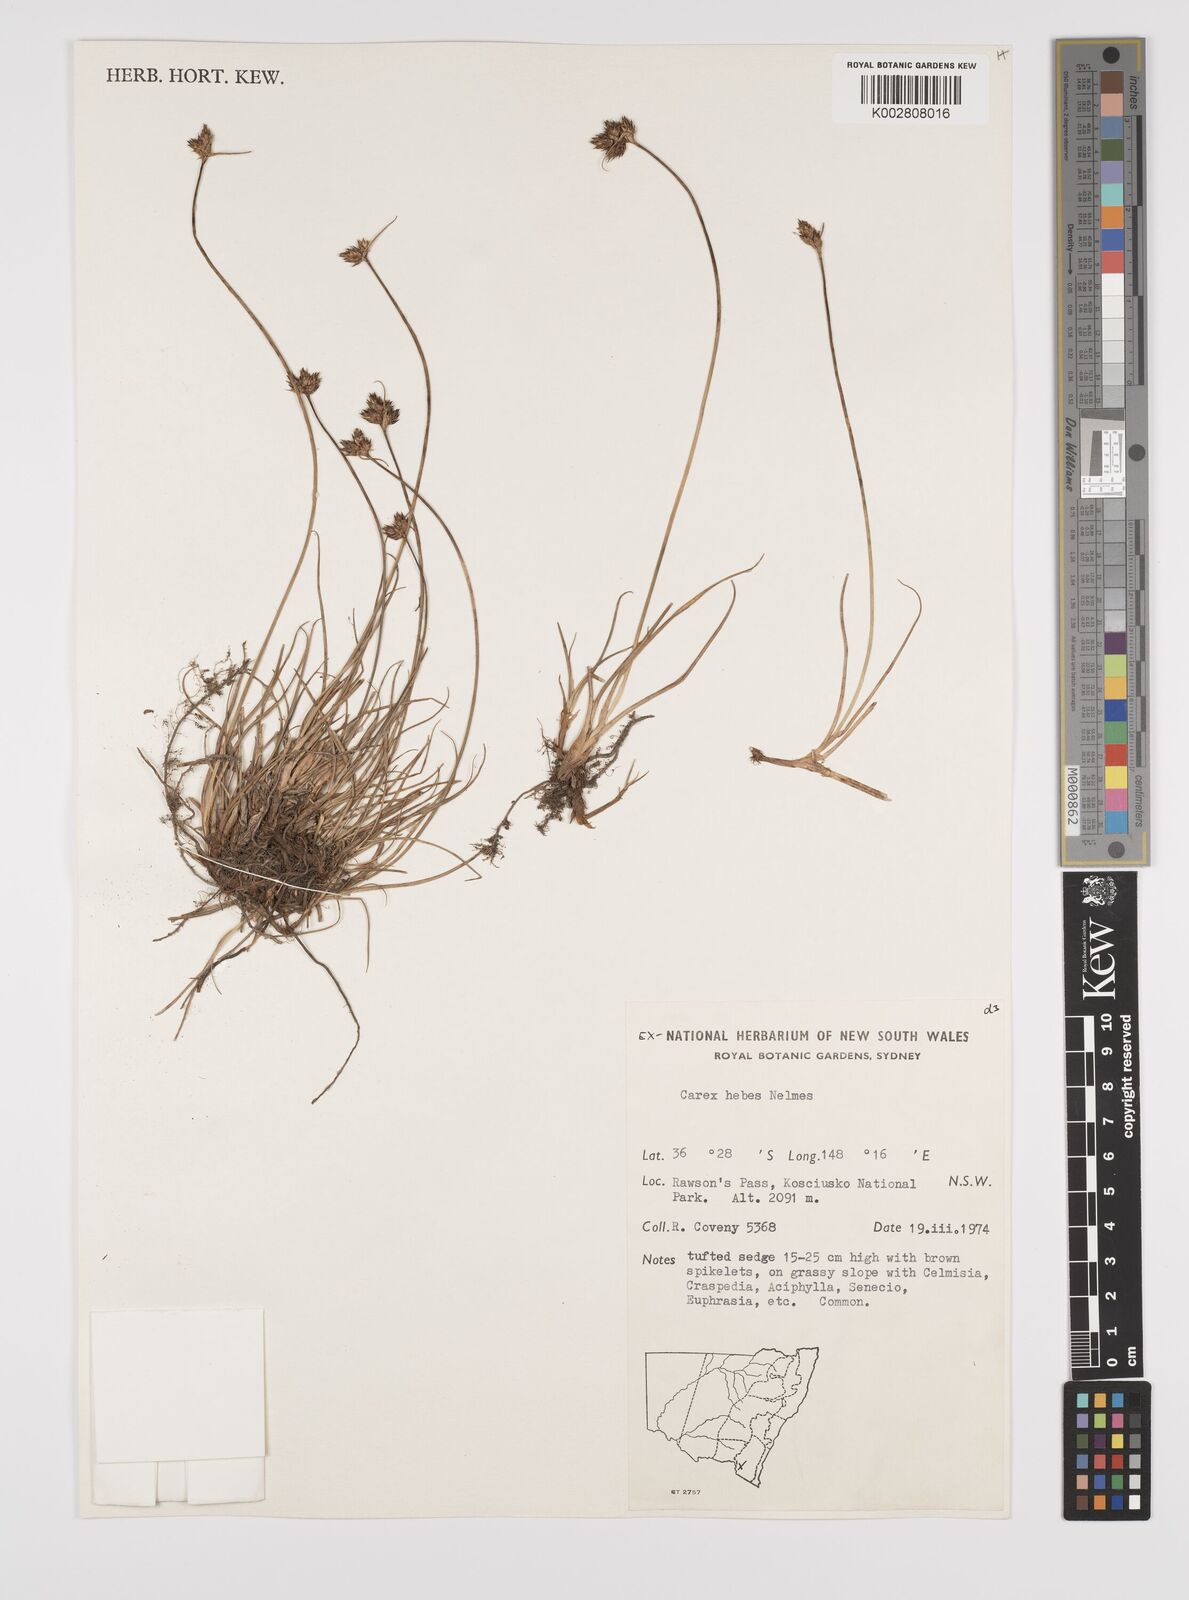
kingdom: Plantae
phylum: Tracheophyta
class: Liliopsida
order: Poales
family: Cyperaceae
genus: Carex
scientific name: Carex hebes
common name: Dry land sedge
